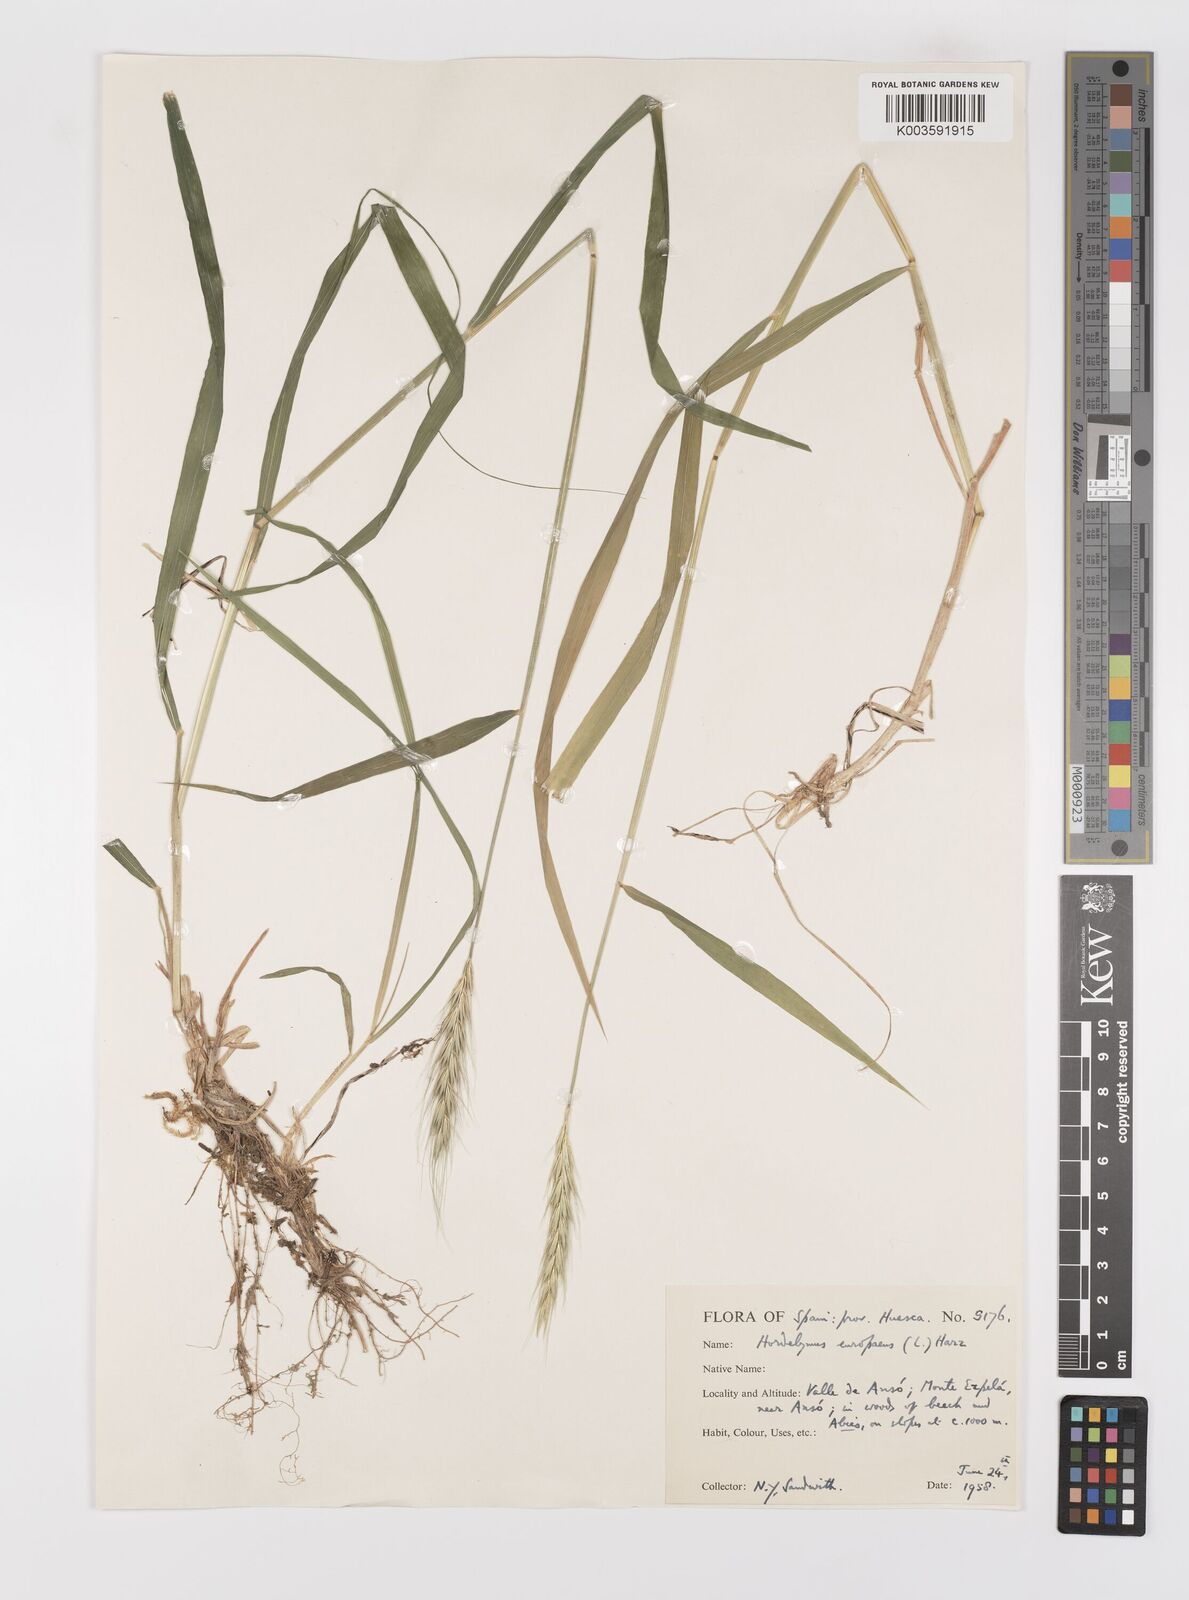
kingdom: Plantae
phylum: Tracheophyta
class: Liliopsida
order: Poales
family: Poaceae
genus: Hordelymus
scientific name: Hordelymus europaeus
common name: Wood-barley
